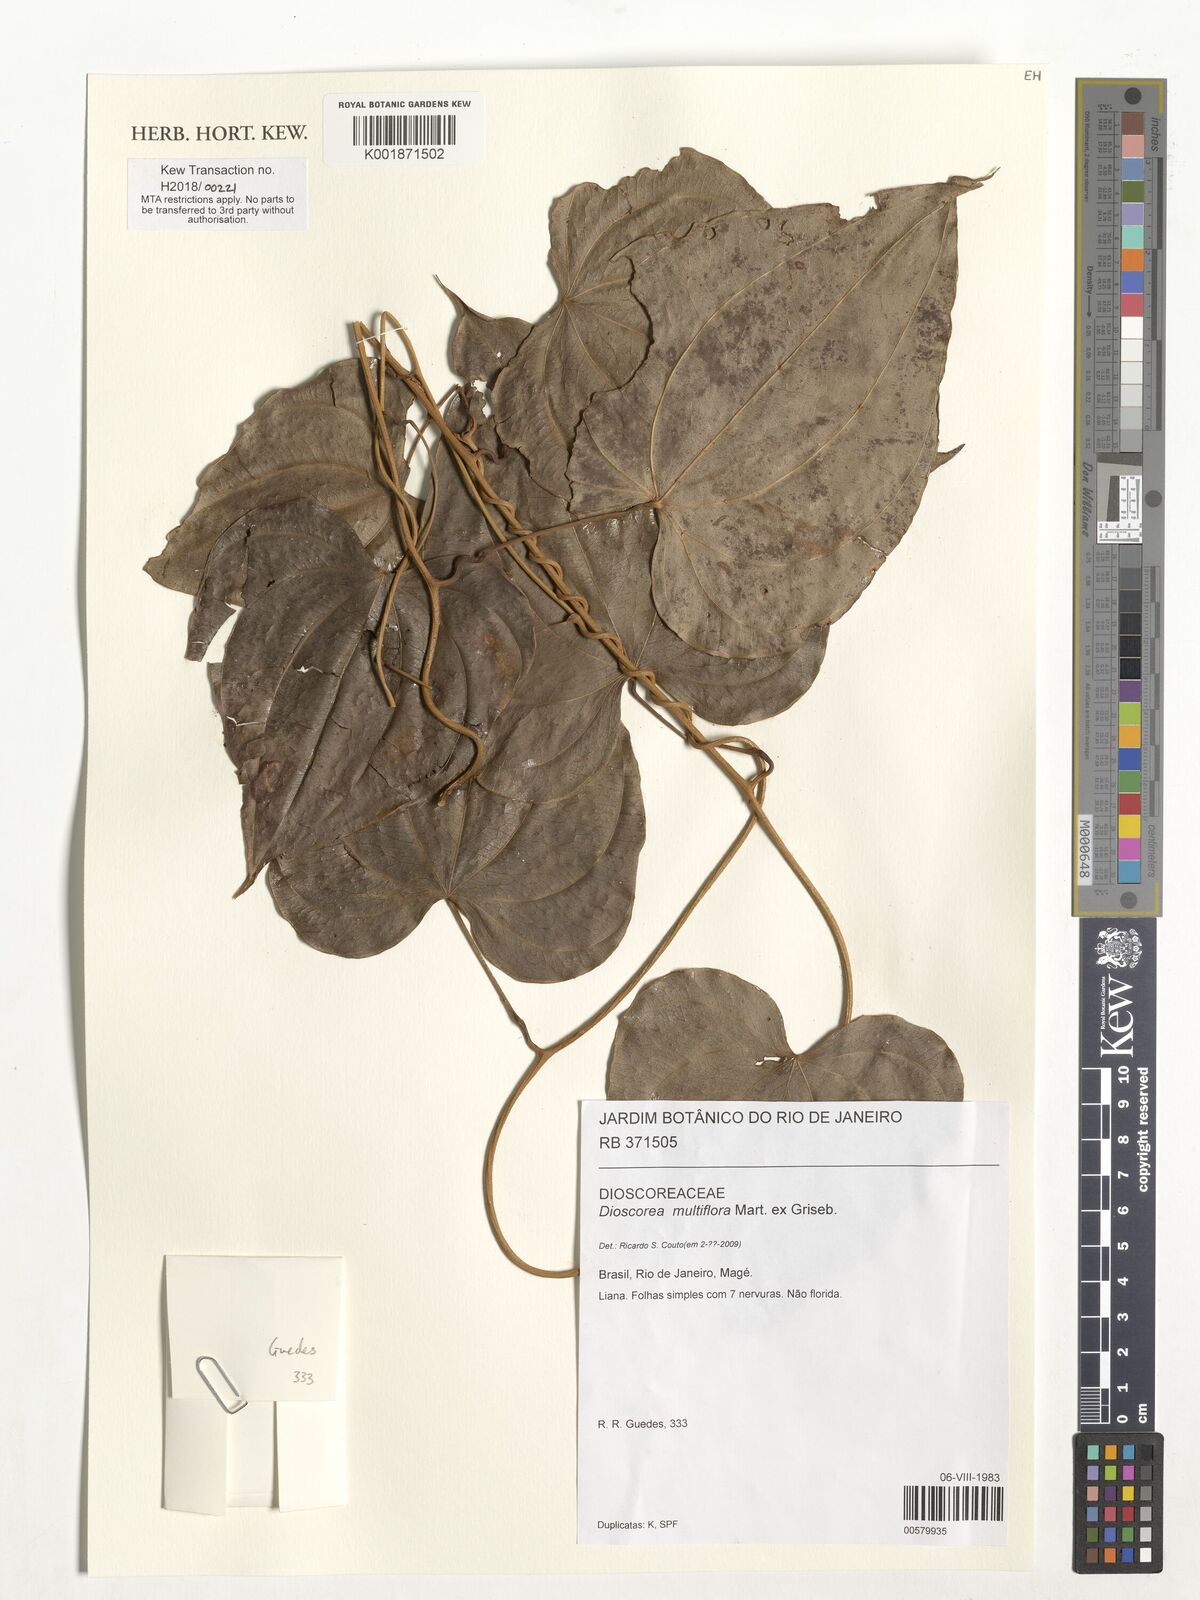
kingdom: Plantae
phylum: Tracheophyta
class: Liliopsida
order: Dioscoreales
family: Dioscoreaceae
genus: Dioscorea
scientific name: Dioscorea multiflora
